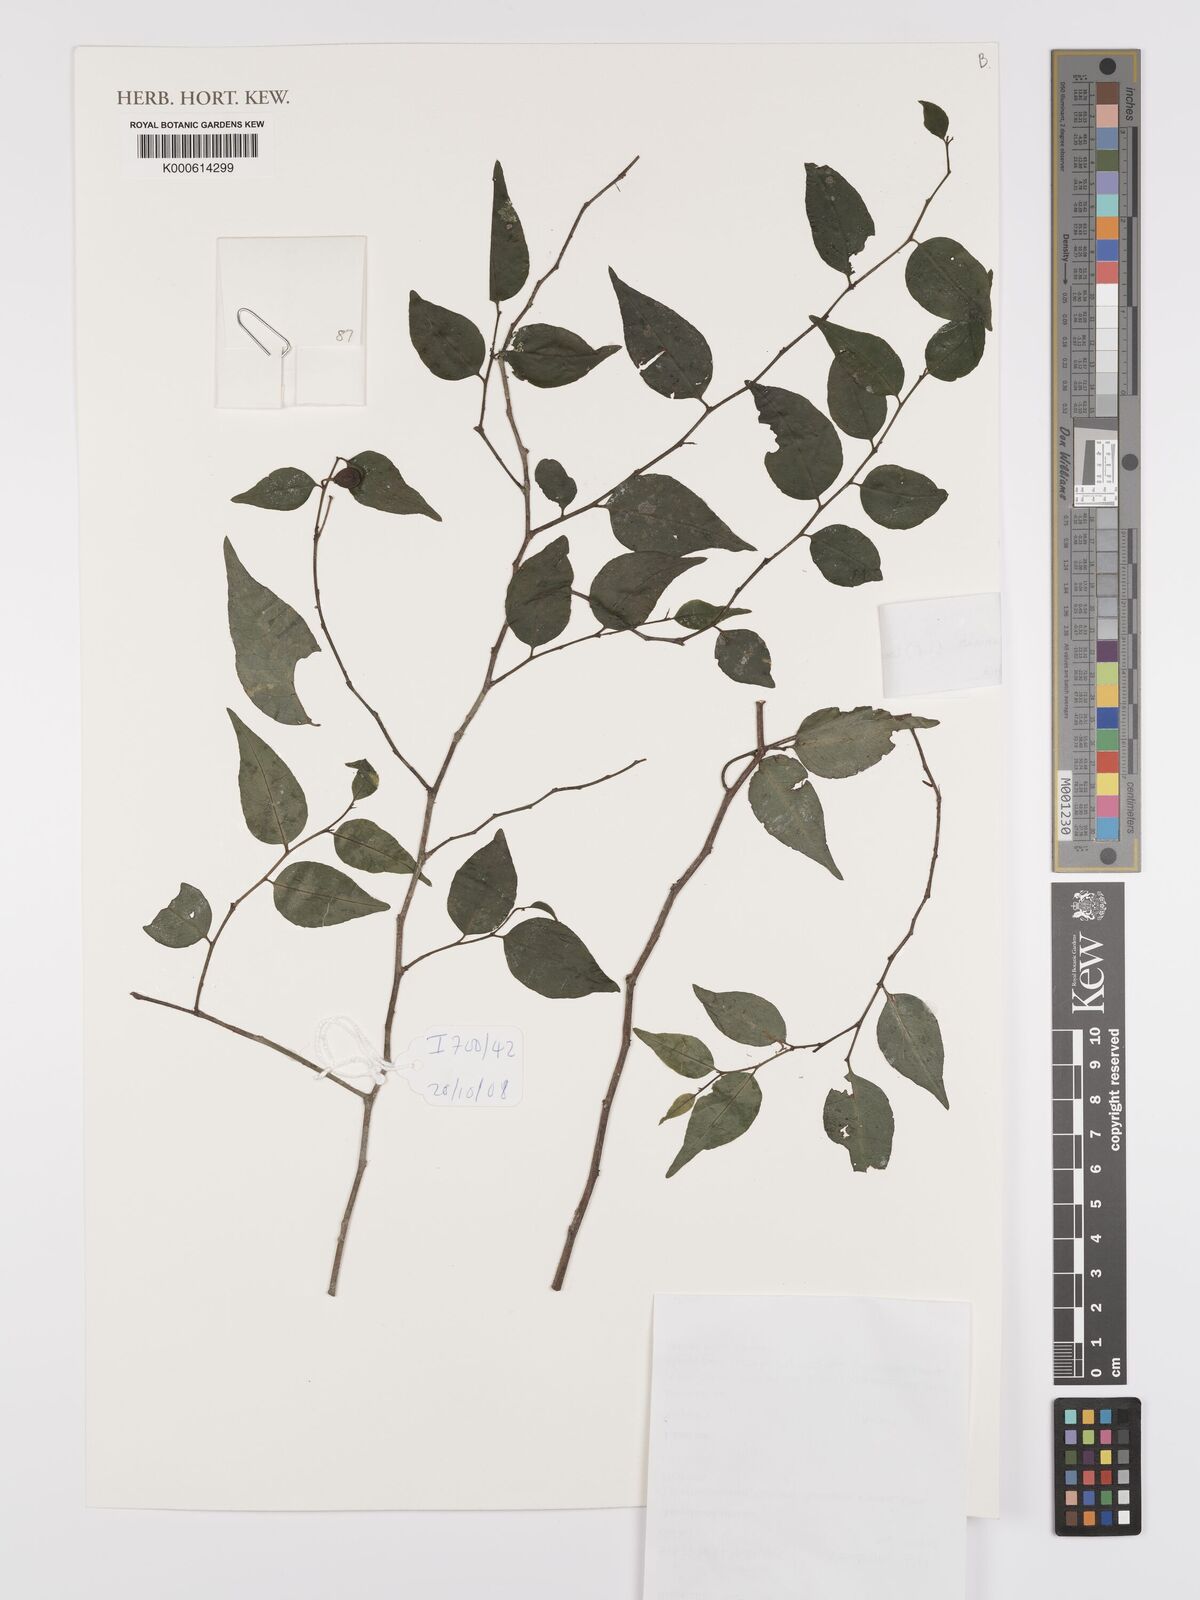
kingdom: Plantae
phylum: Tracheophyta
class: Magnoliopsida
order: Celastrales
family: Celastraceae
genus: Gymnosporia
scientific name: Gymnosporia acuminata
